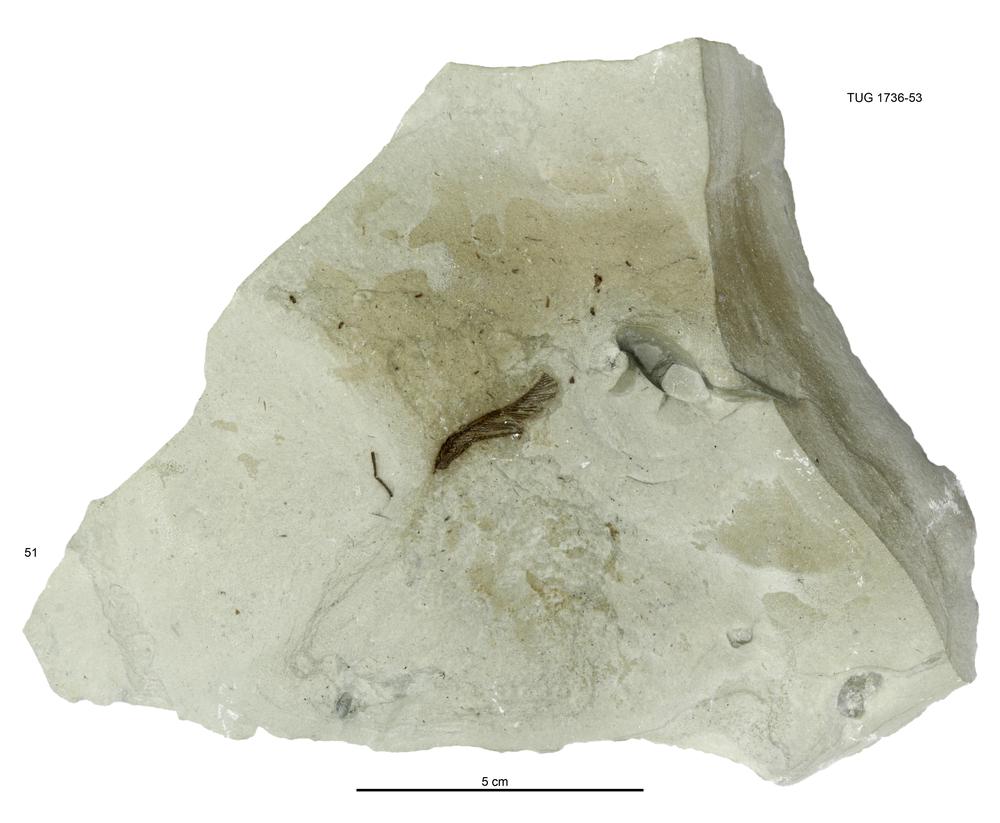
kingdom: Animalia
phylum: Echinodermata
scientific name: Echinodermata
